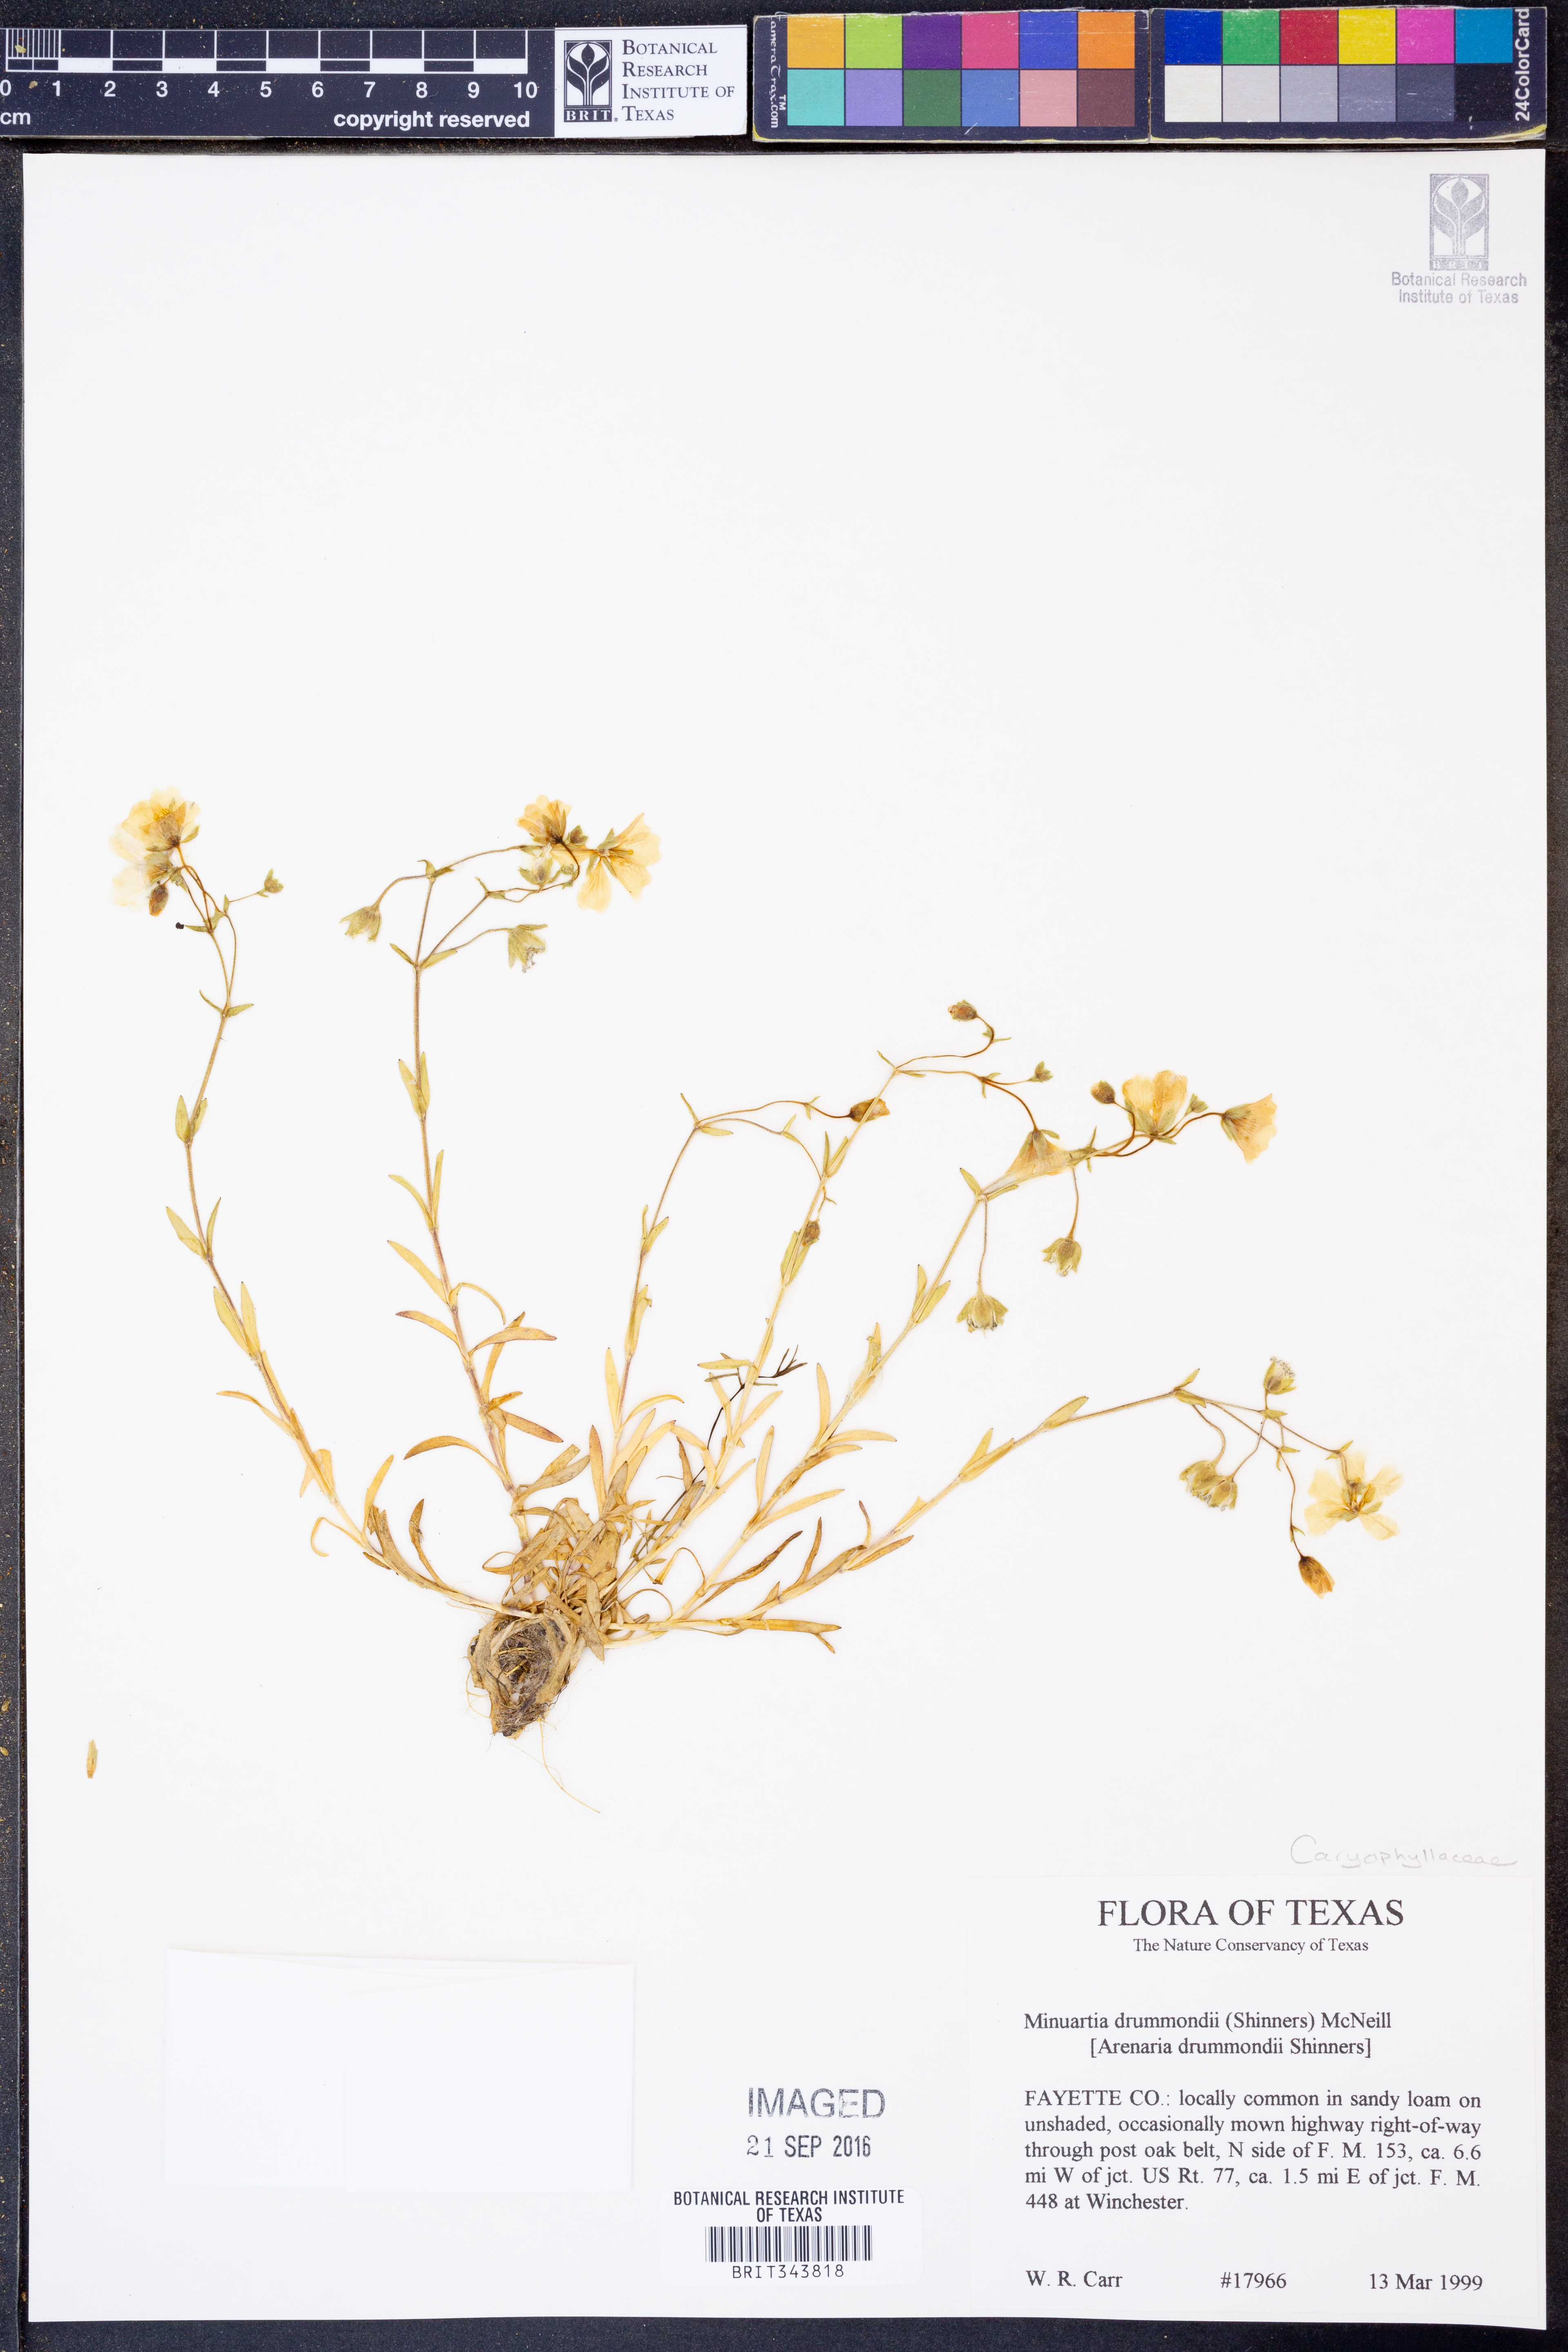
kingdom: Plantae
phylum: Tracheophyta
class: Magnoliopsida
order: Caryophyllales
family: Caryophyllaceae
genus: Geocarpon
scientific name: Geocarpon nuttallii
